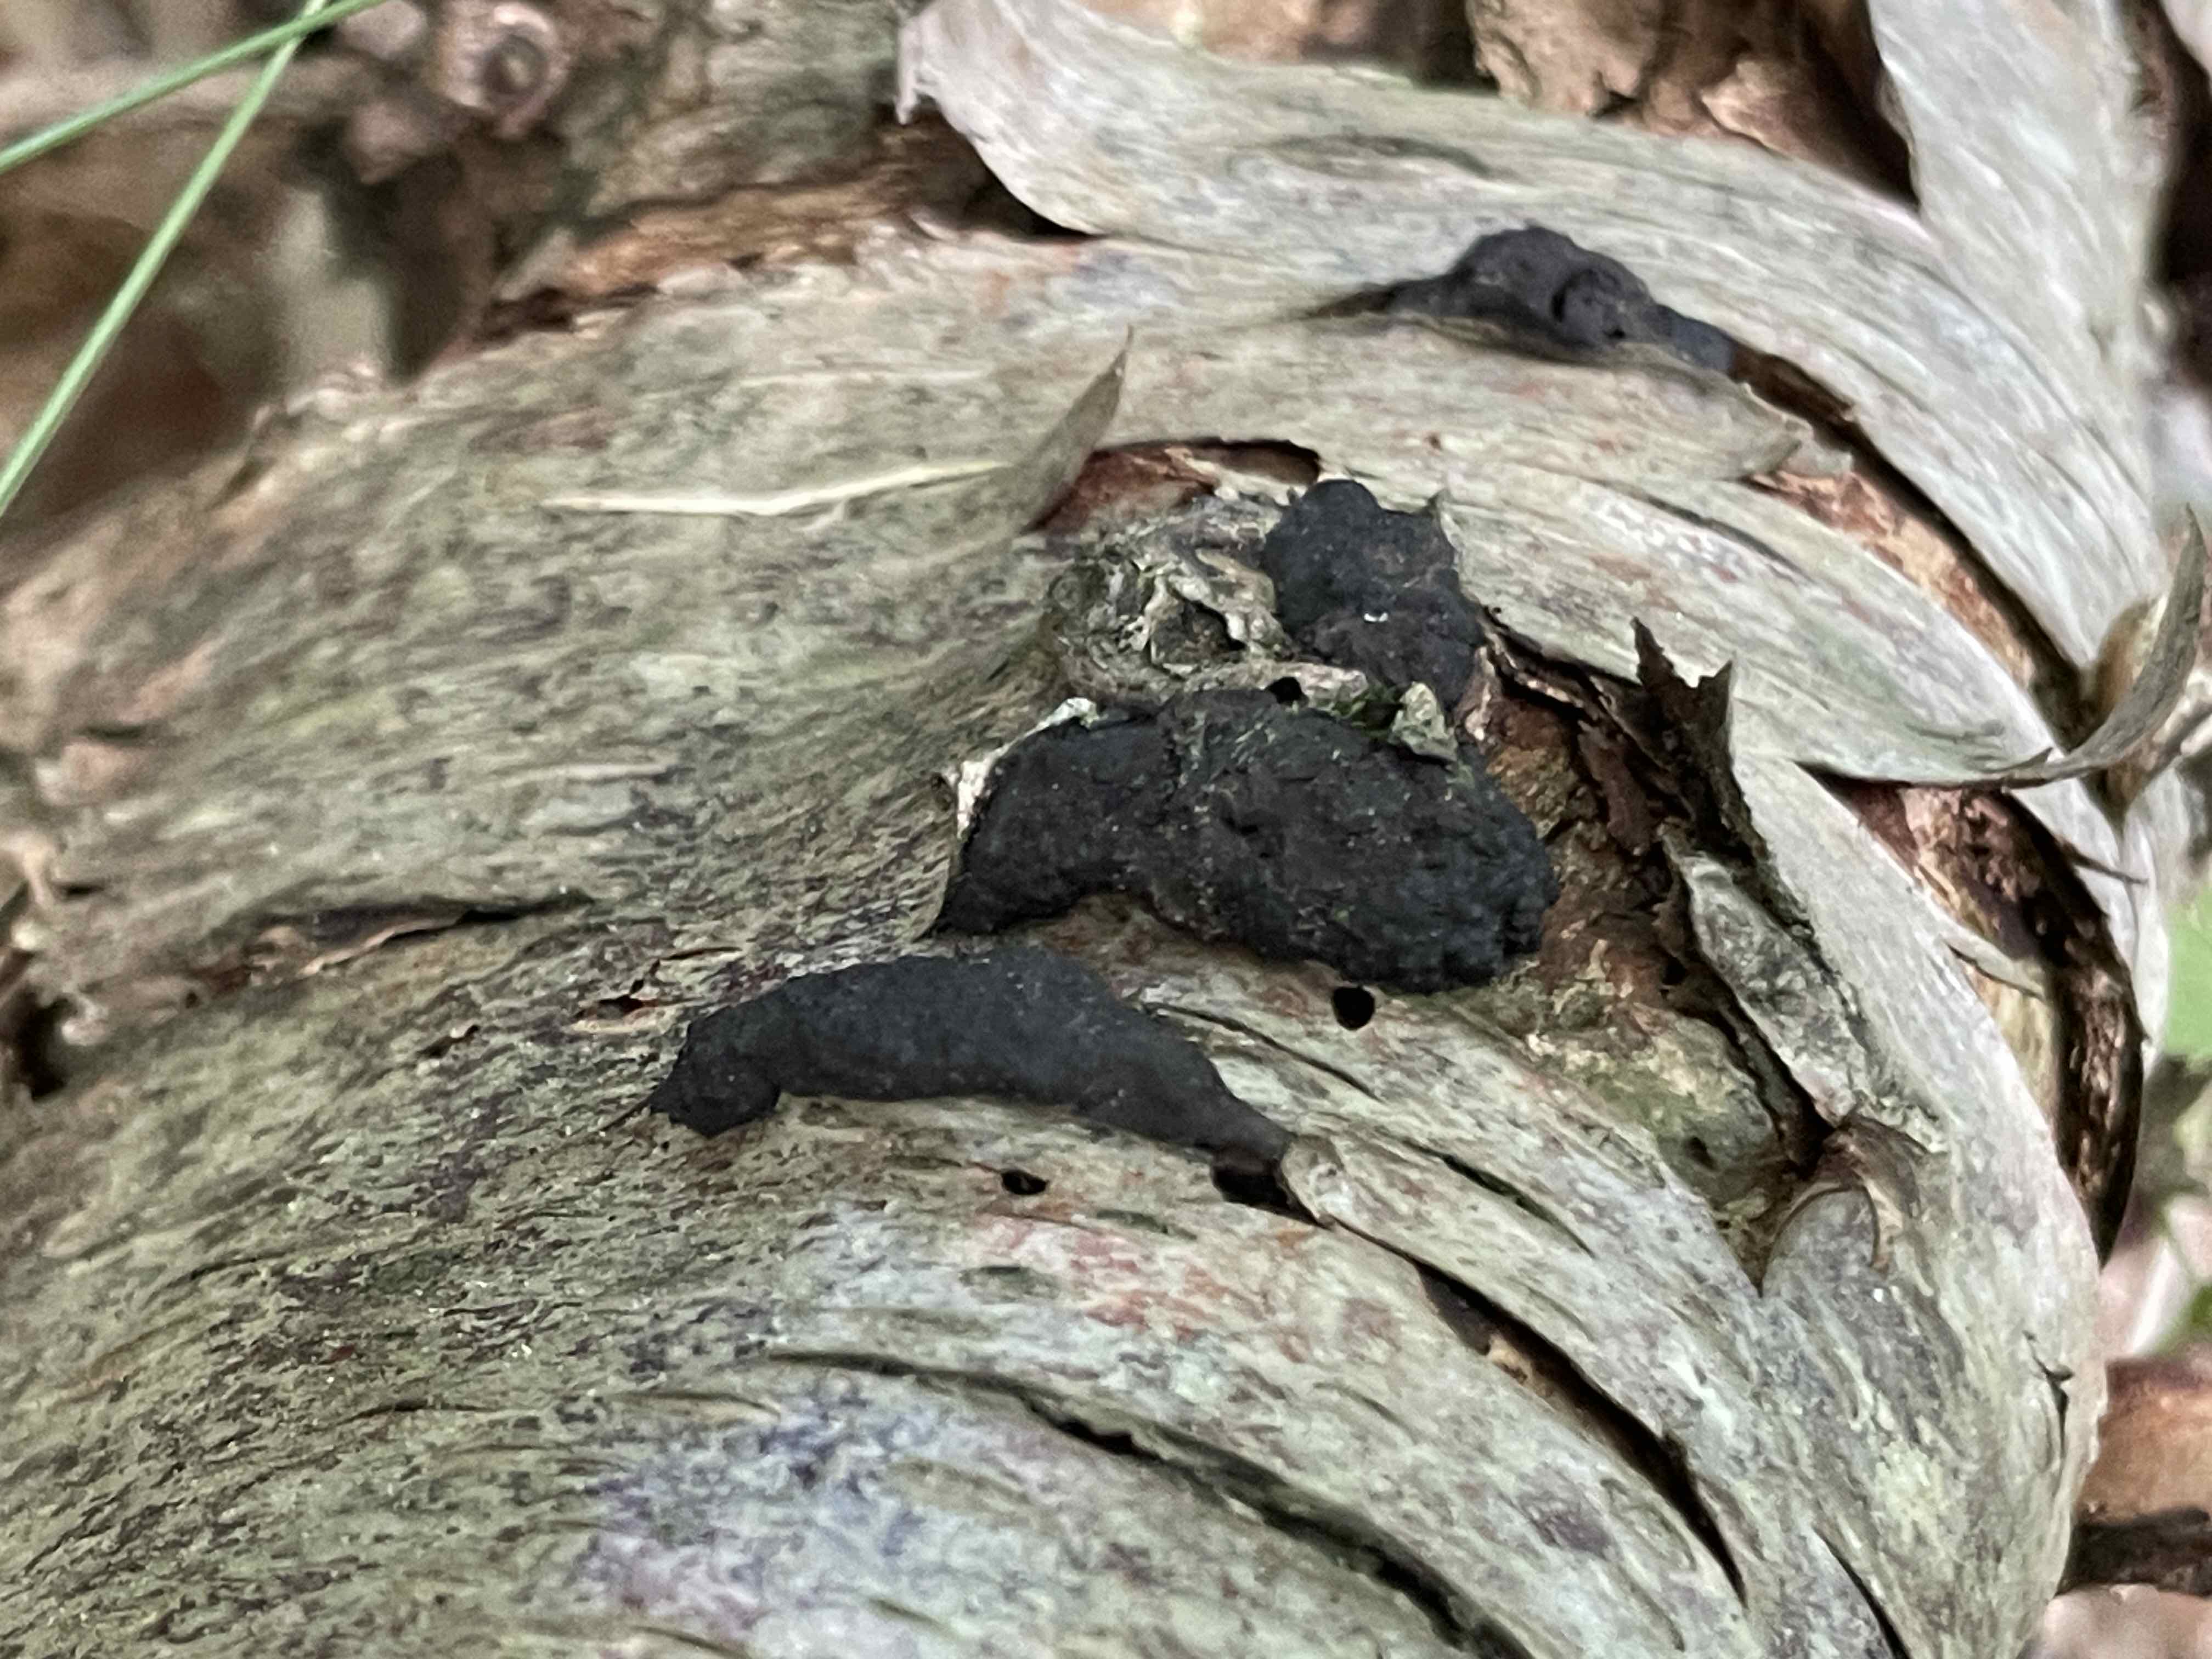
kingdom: Fungi
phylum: Ascomycota
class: Sordariomycetes
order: Xylariales
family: Hypoxylaceae
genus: Jackrogersella
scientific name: Jackrogersella multiformis
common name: foranderlig kulbær
